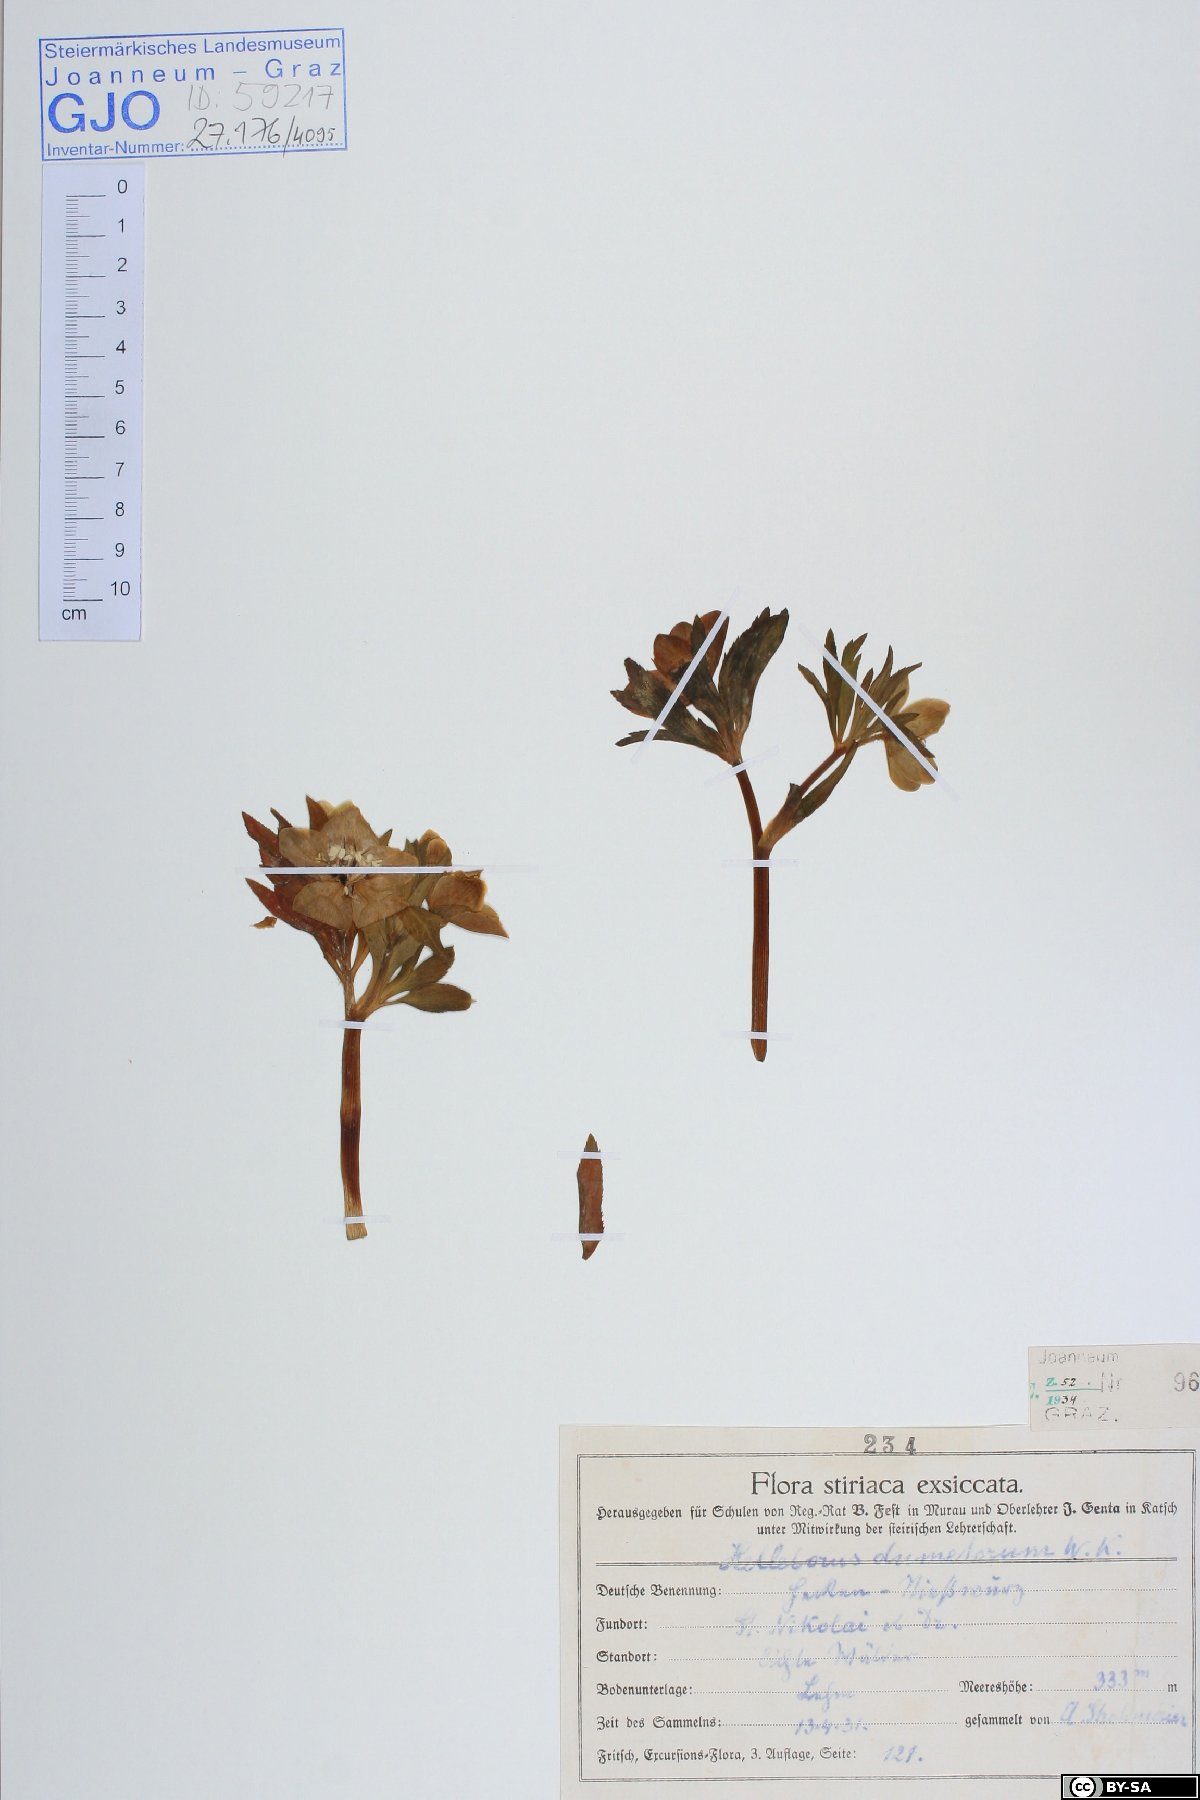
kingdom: Plantae
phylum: Tracheophyta
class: Magnoliopsida
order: Ranunculales
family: Ranunculaceae
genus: Helleborus
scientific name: Helleborus dumetorum
